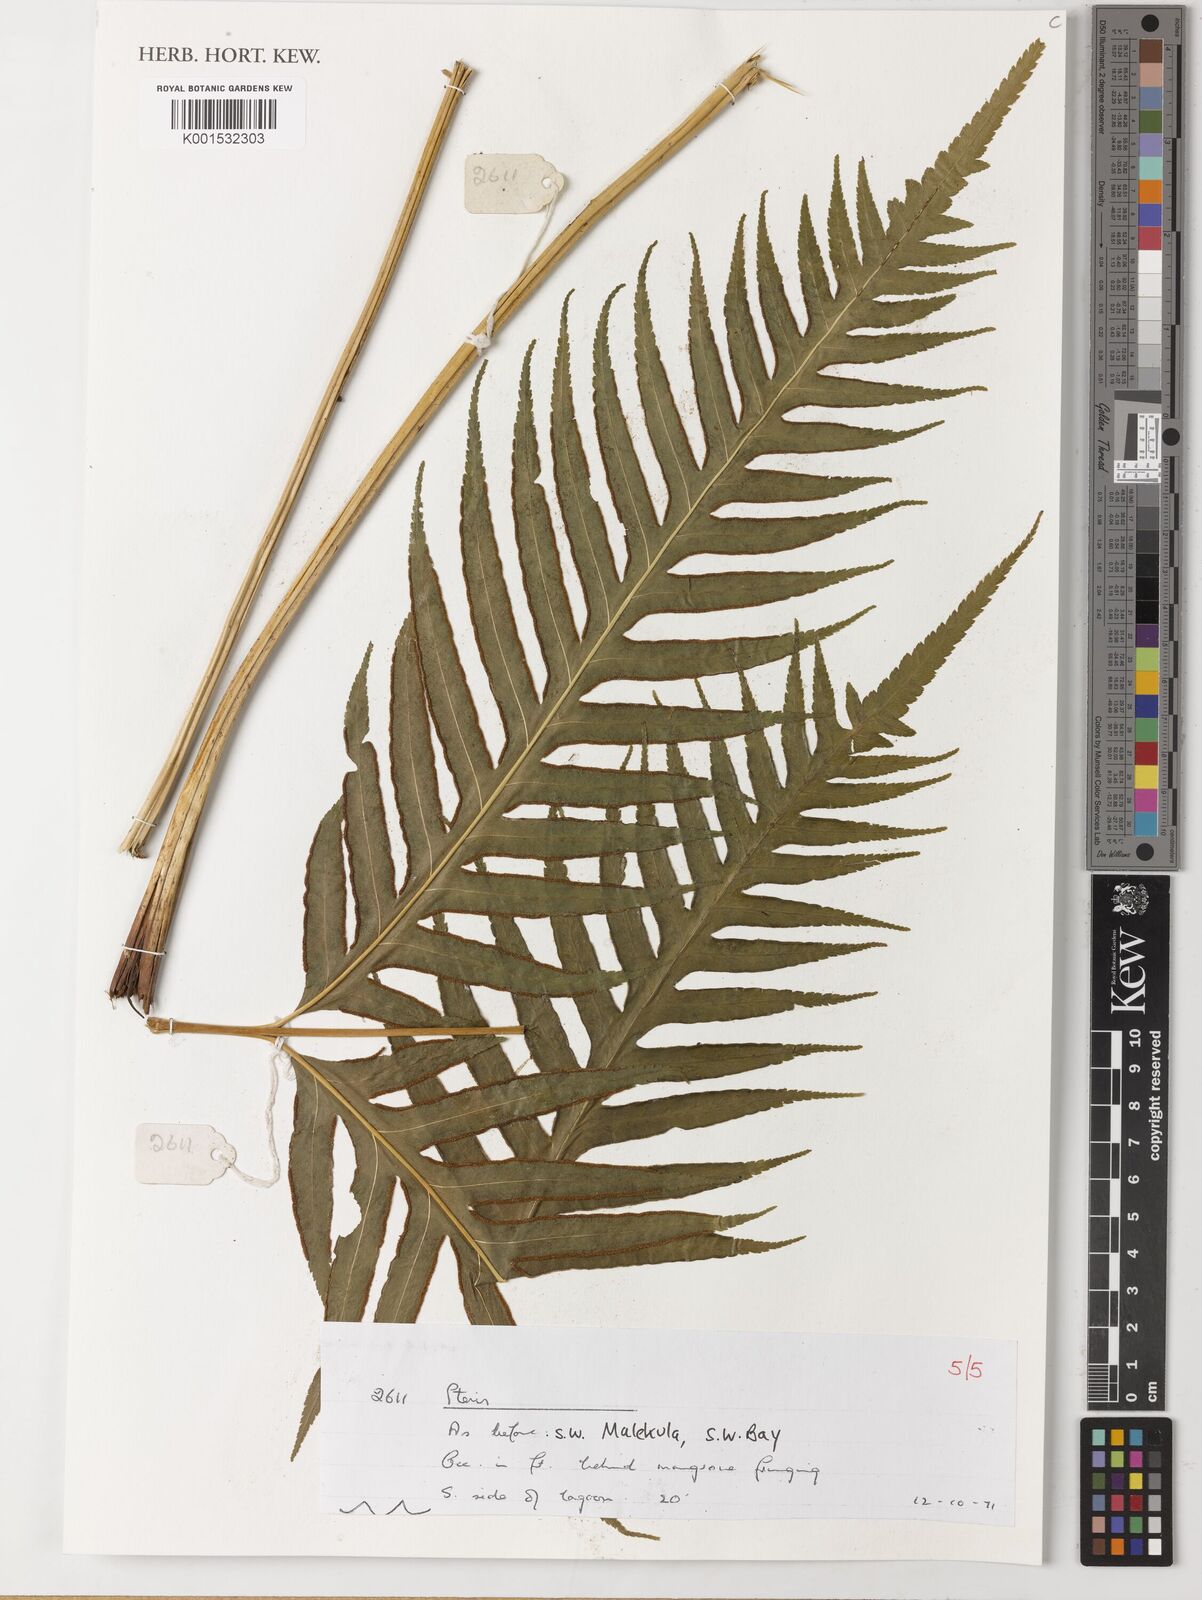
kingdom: Plantae
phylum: Tracheophyta
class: Polypodiopsida
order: Polypodiales
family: Pteridaceae
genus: Pteris
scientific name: Pteris
